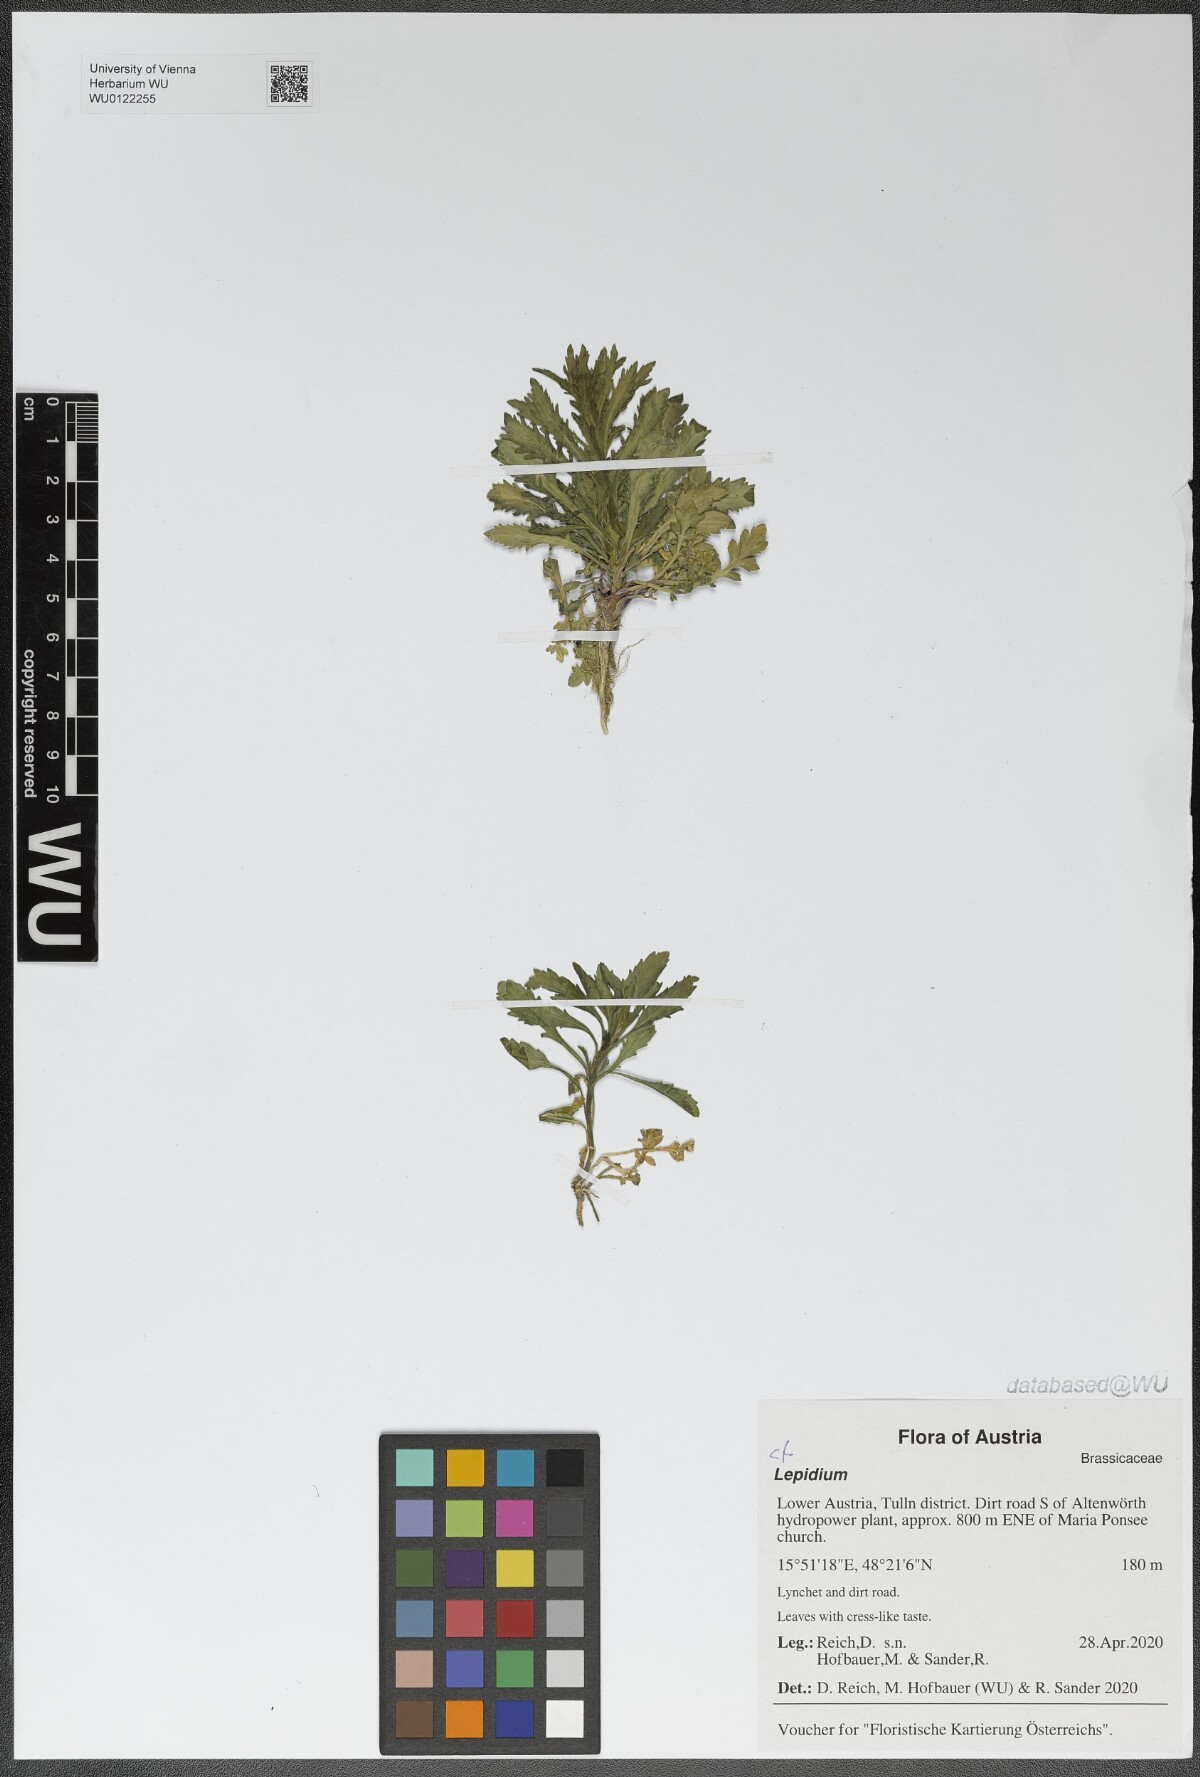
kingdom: Plantae
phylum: Tracheophyta
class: Magnoliopsida
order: Brassicales
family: Brassicaceae
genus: Lepidium
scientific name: Lepidium
